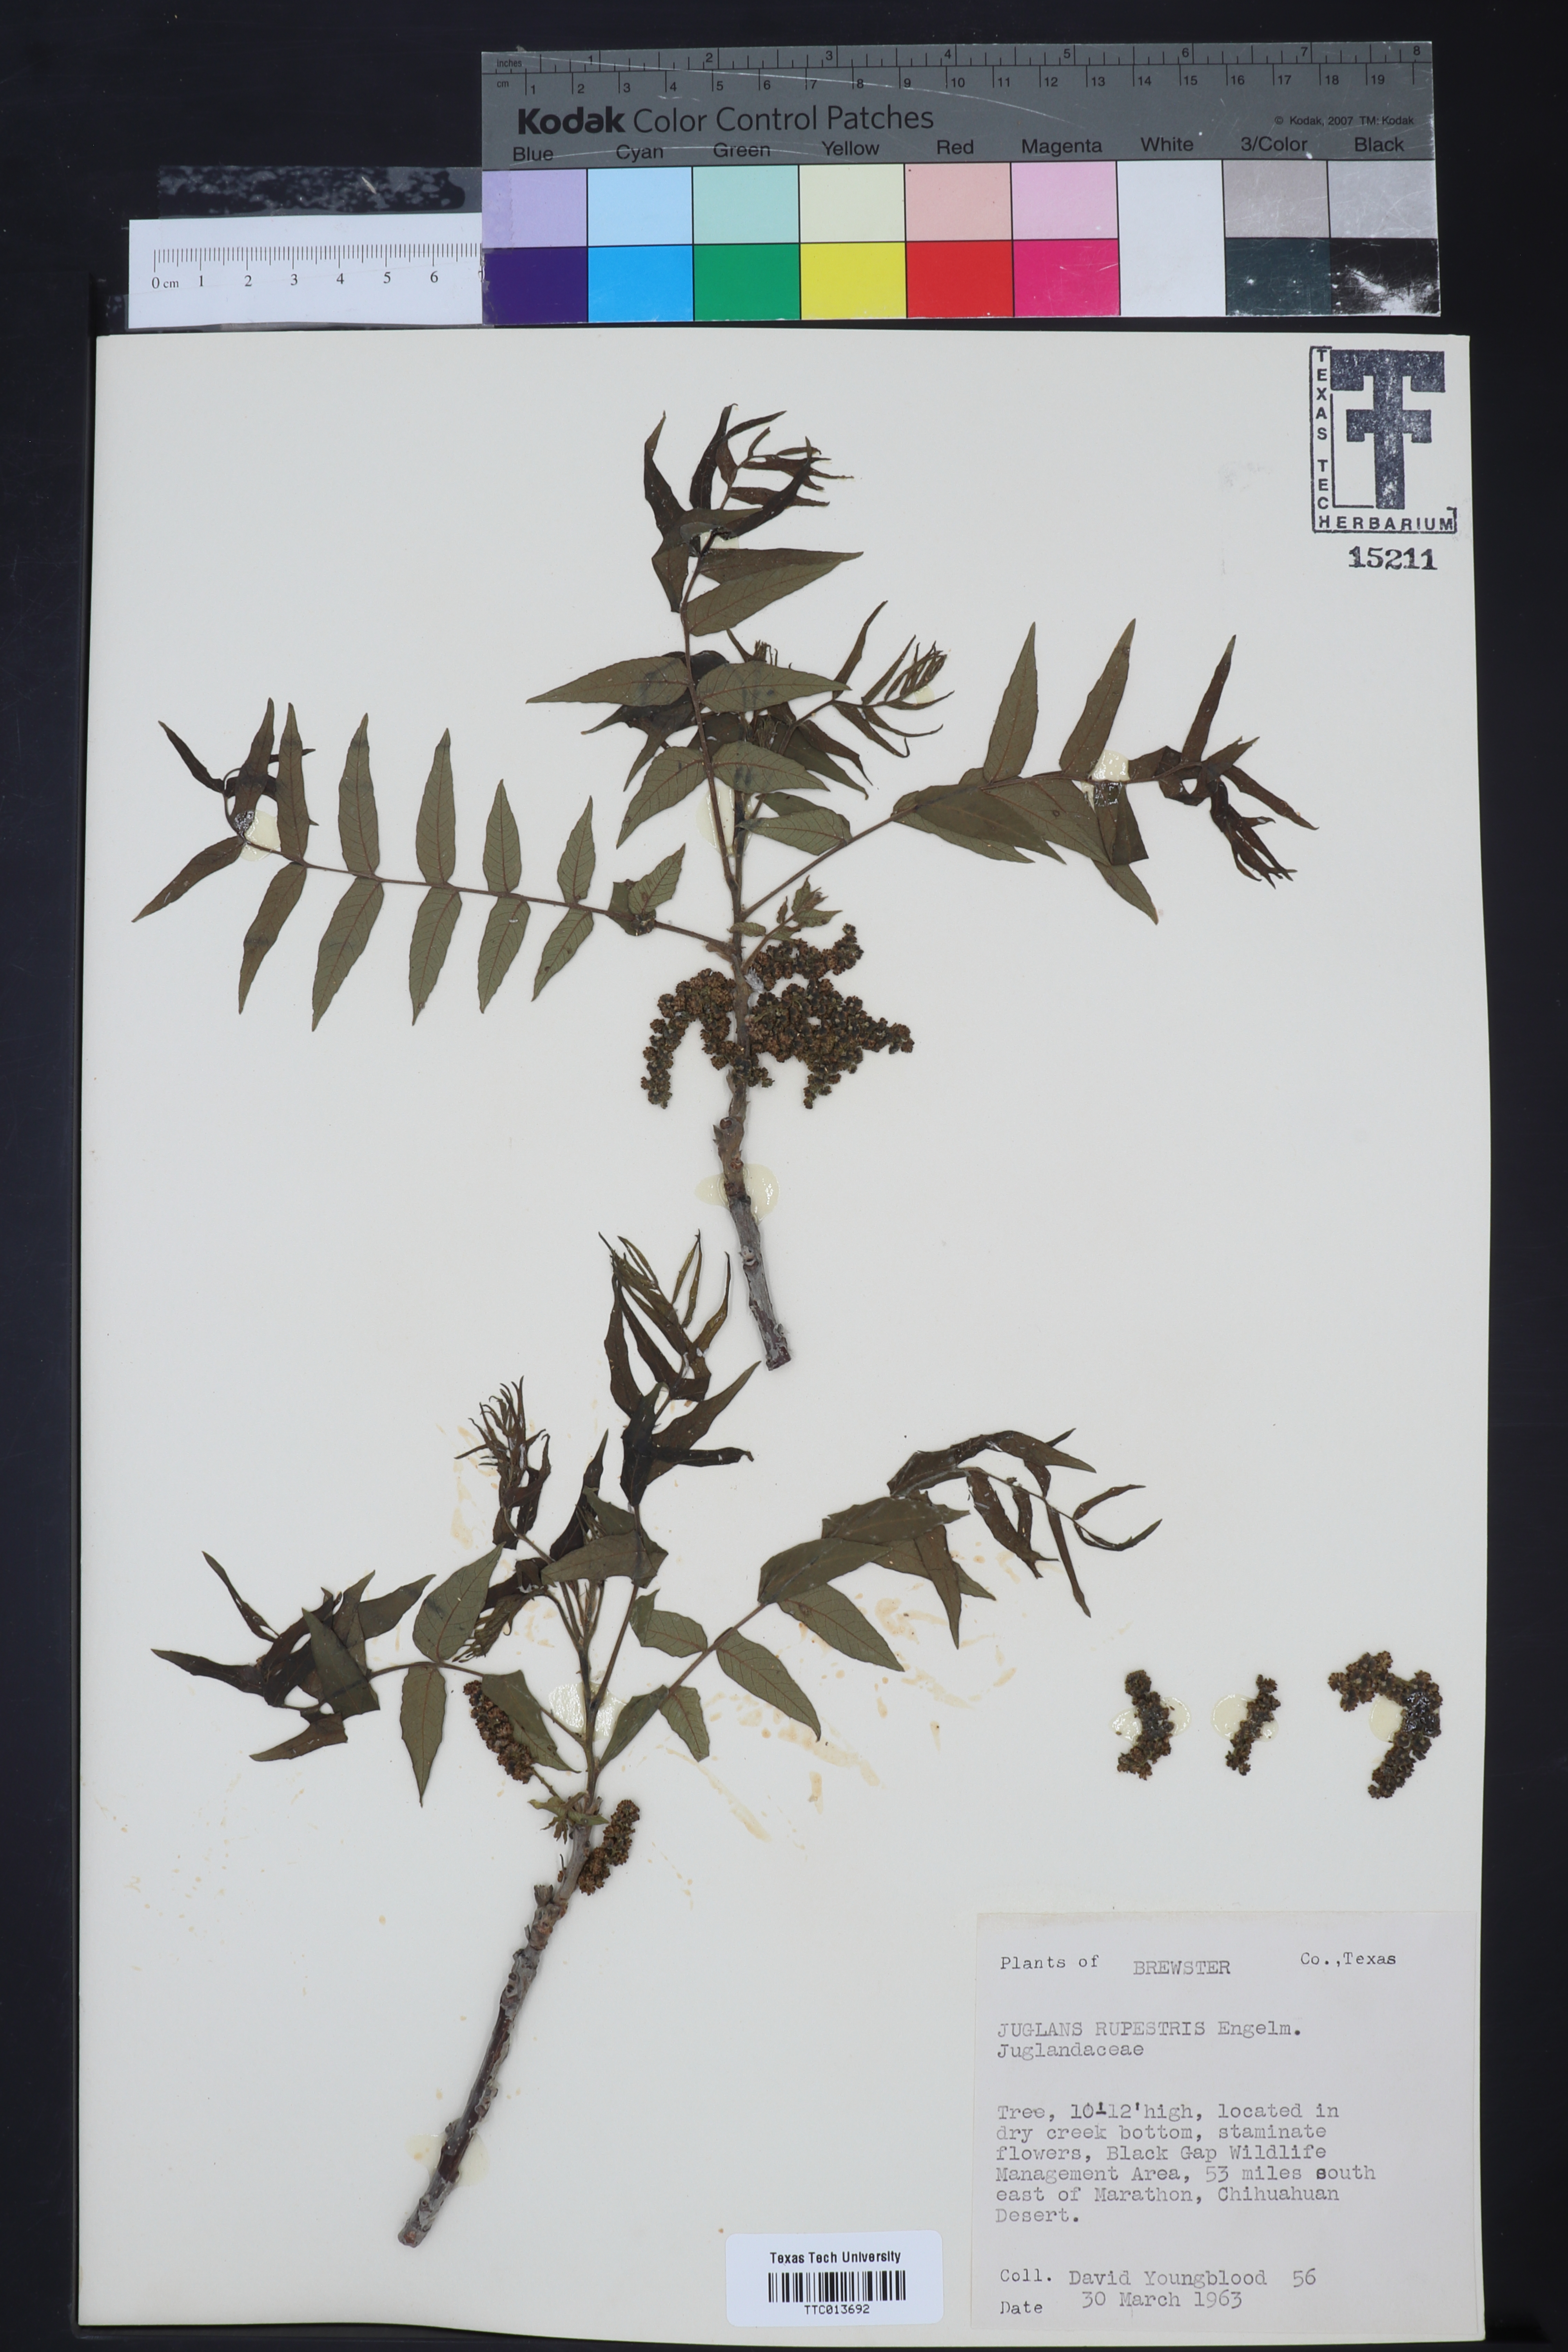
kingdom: Plantae
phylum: Tracheophyta
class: Magnoliopsida
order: Fagales
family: Juglandaceae
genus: Juglans
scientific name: Juglans microcarpa
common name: Texas walnut
